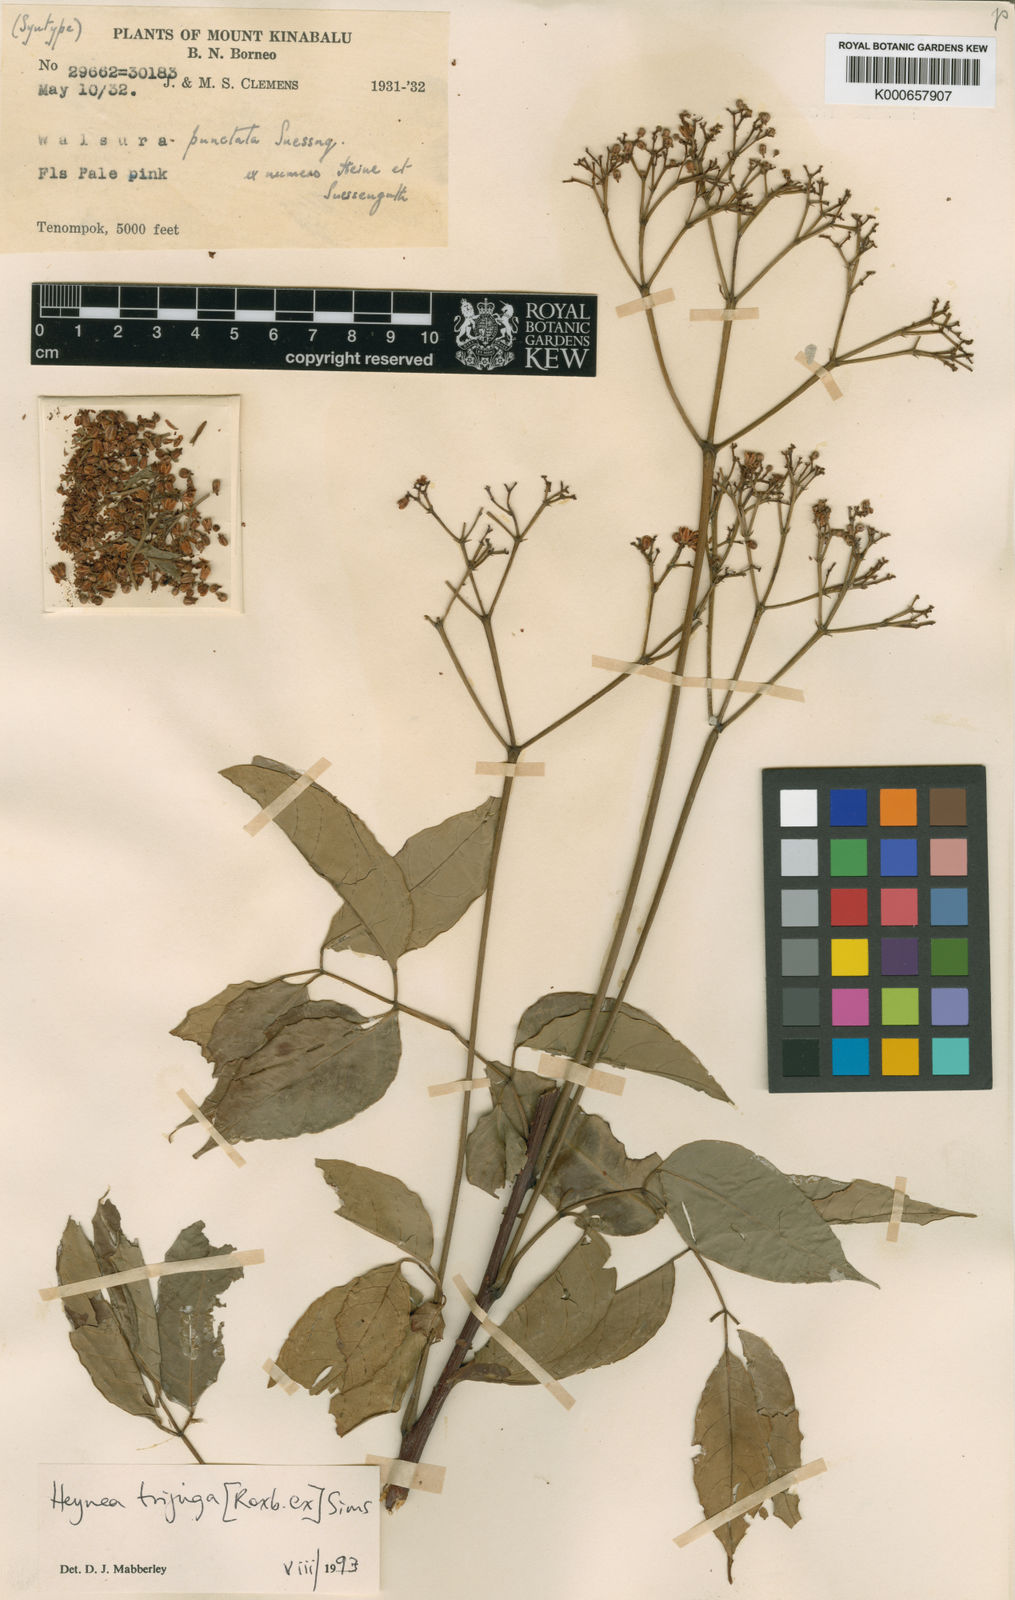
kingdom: Plantae
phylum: Tracheophyta
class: Magnoliopsida
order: Sapindales
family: Meliaceae
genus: Heynea
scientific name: Heynea trijuga
